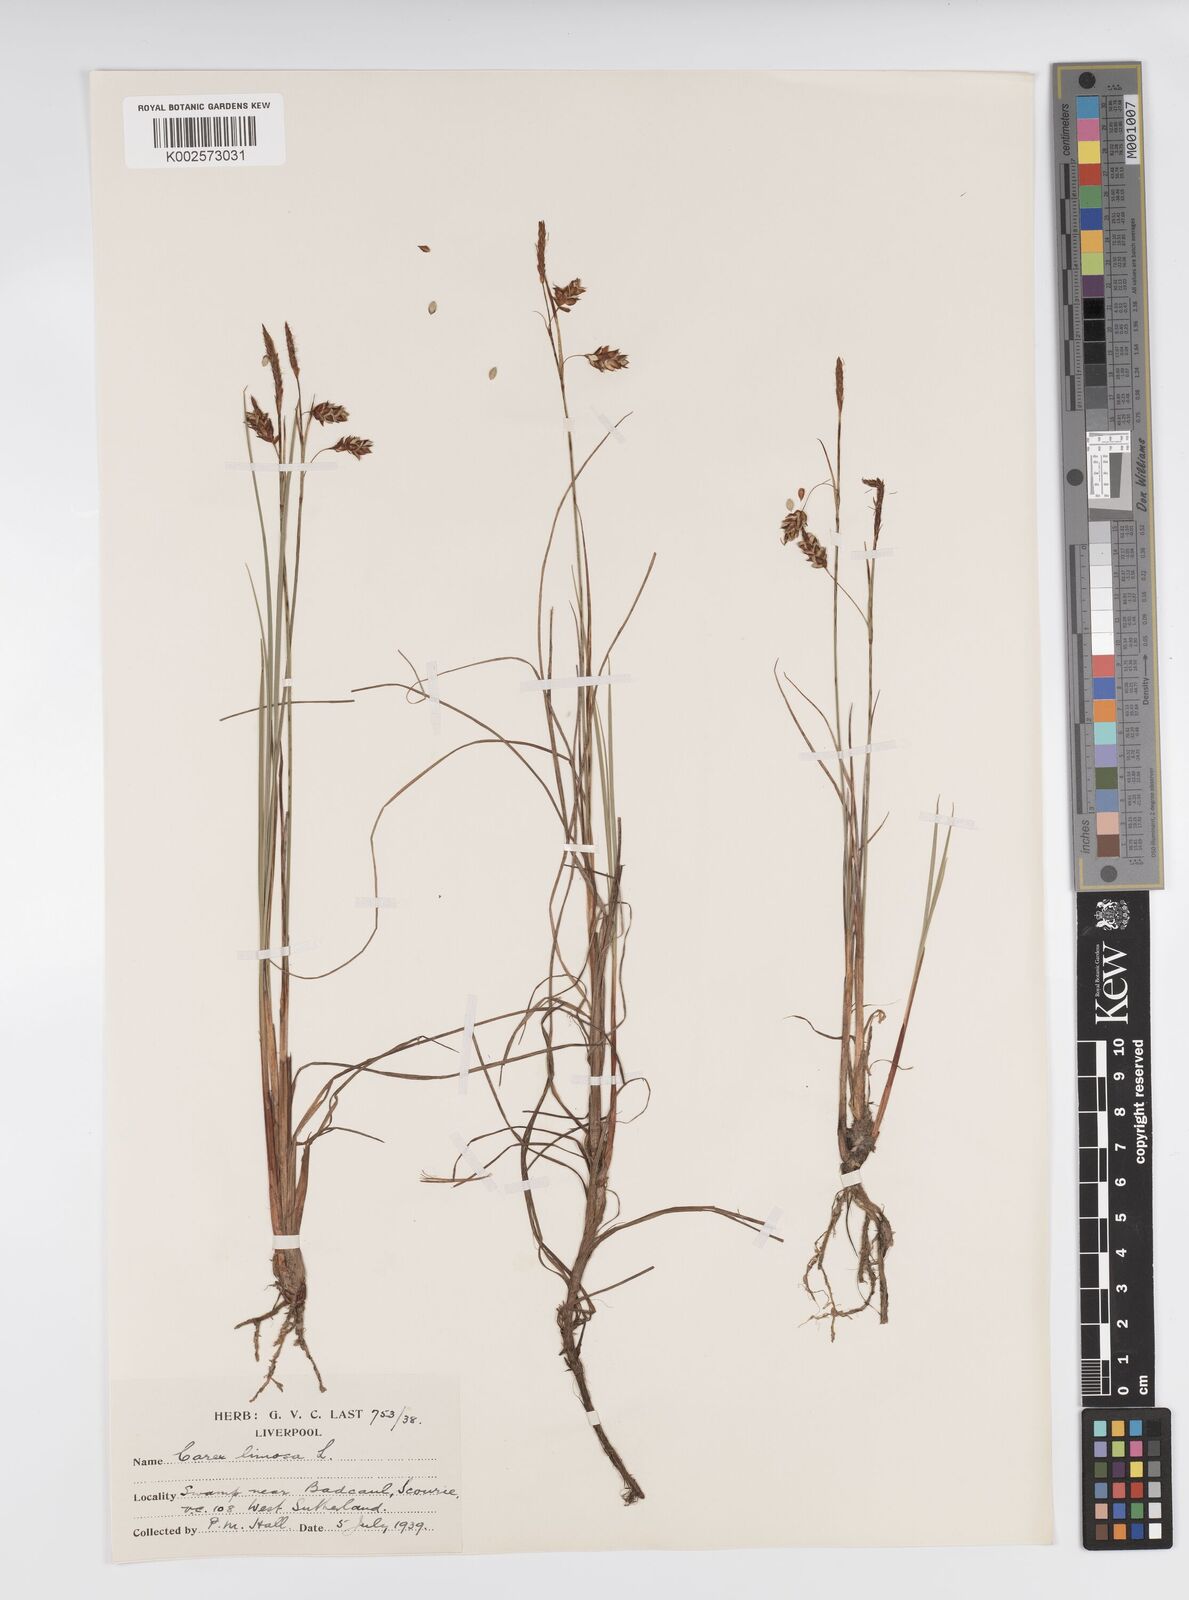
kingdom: Plantae
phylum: Tracheophyta
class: Liliopsida
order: Poales
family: Cyperaceae
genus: Carex
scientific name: Carex limosa
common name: Bog sedge
